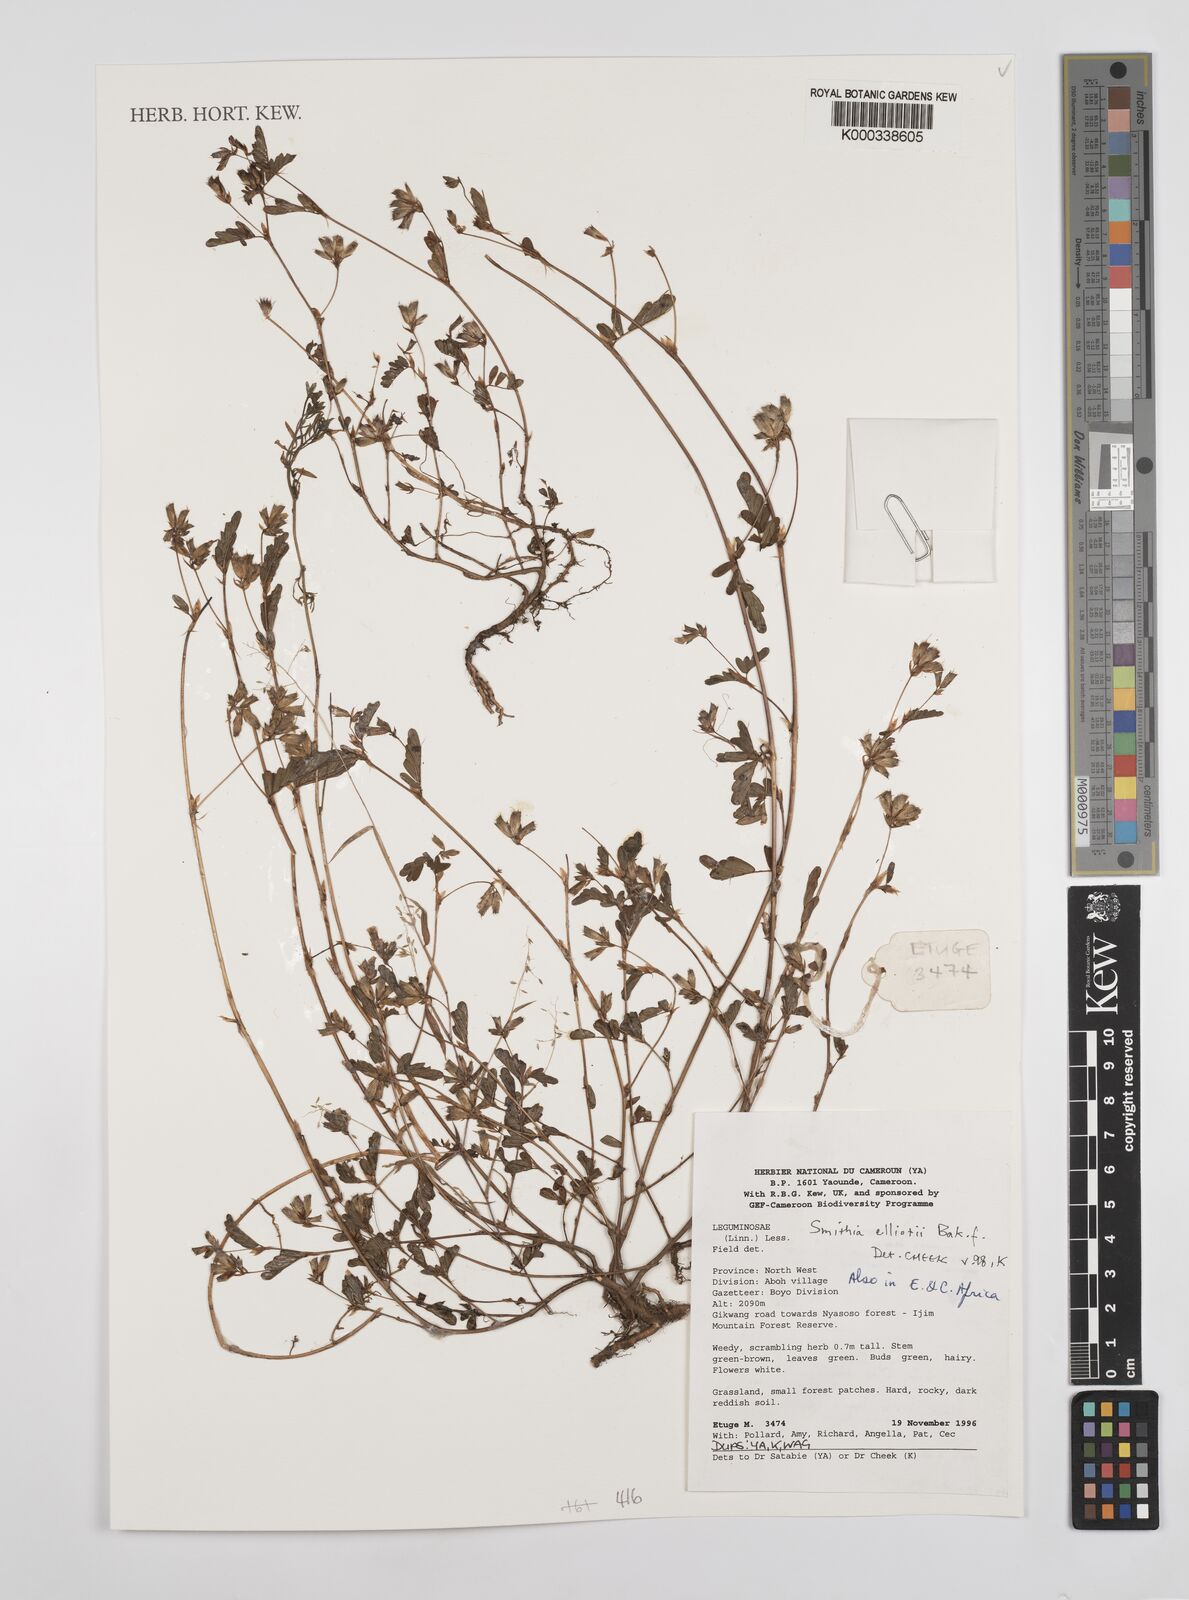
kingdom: Plantae
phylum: Tracheophyta
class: Magnoliopsida
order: Fabales
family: Fabaceae
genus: Smithia
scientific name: Smithia elliotii
